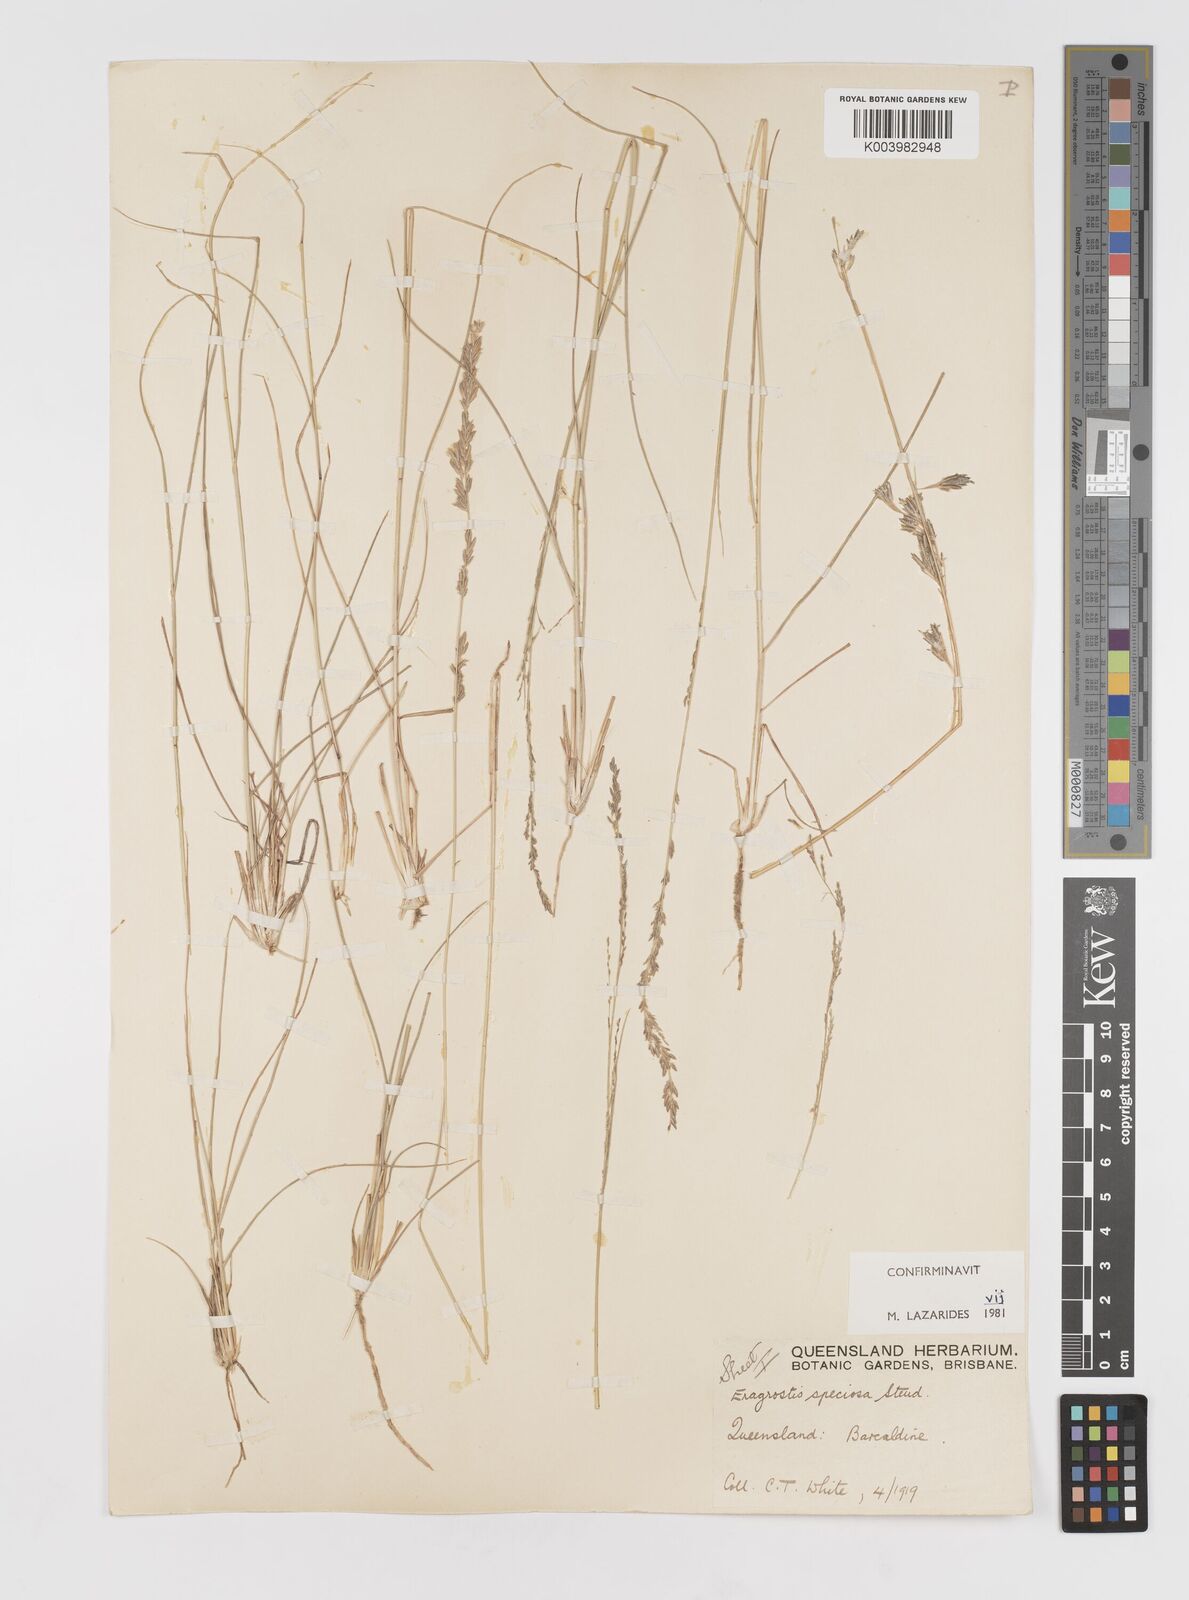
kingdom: Plantae
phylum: Tracheophyta
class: Liliopsida
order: Poales
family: Poaceae
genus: Eragrostis
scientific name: Eragrostis speciosa
